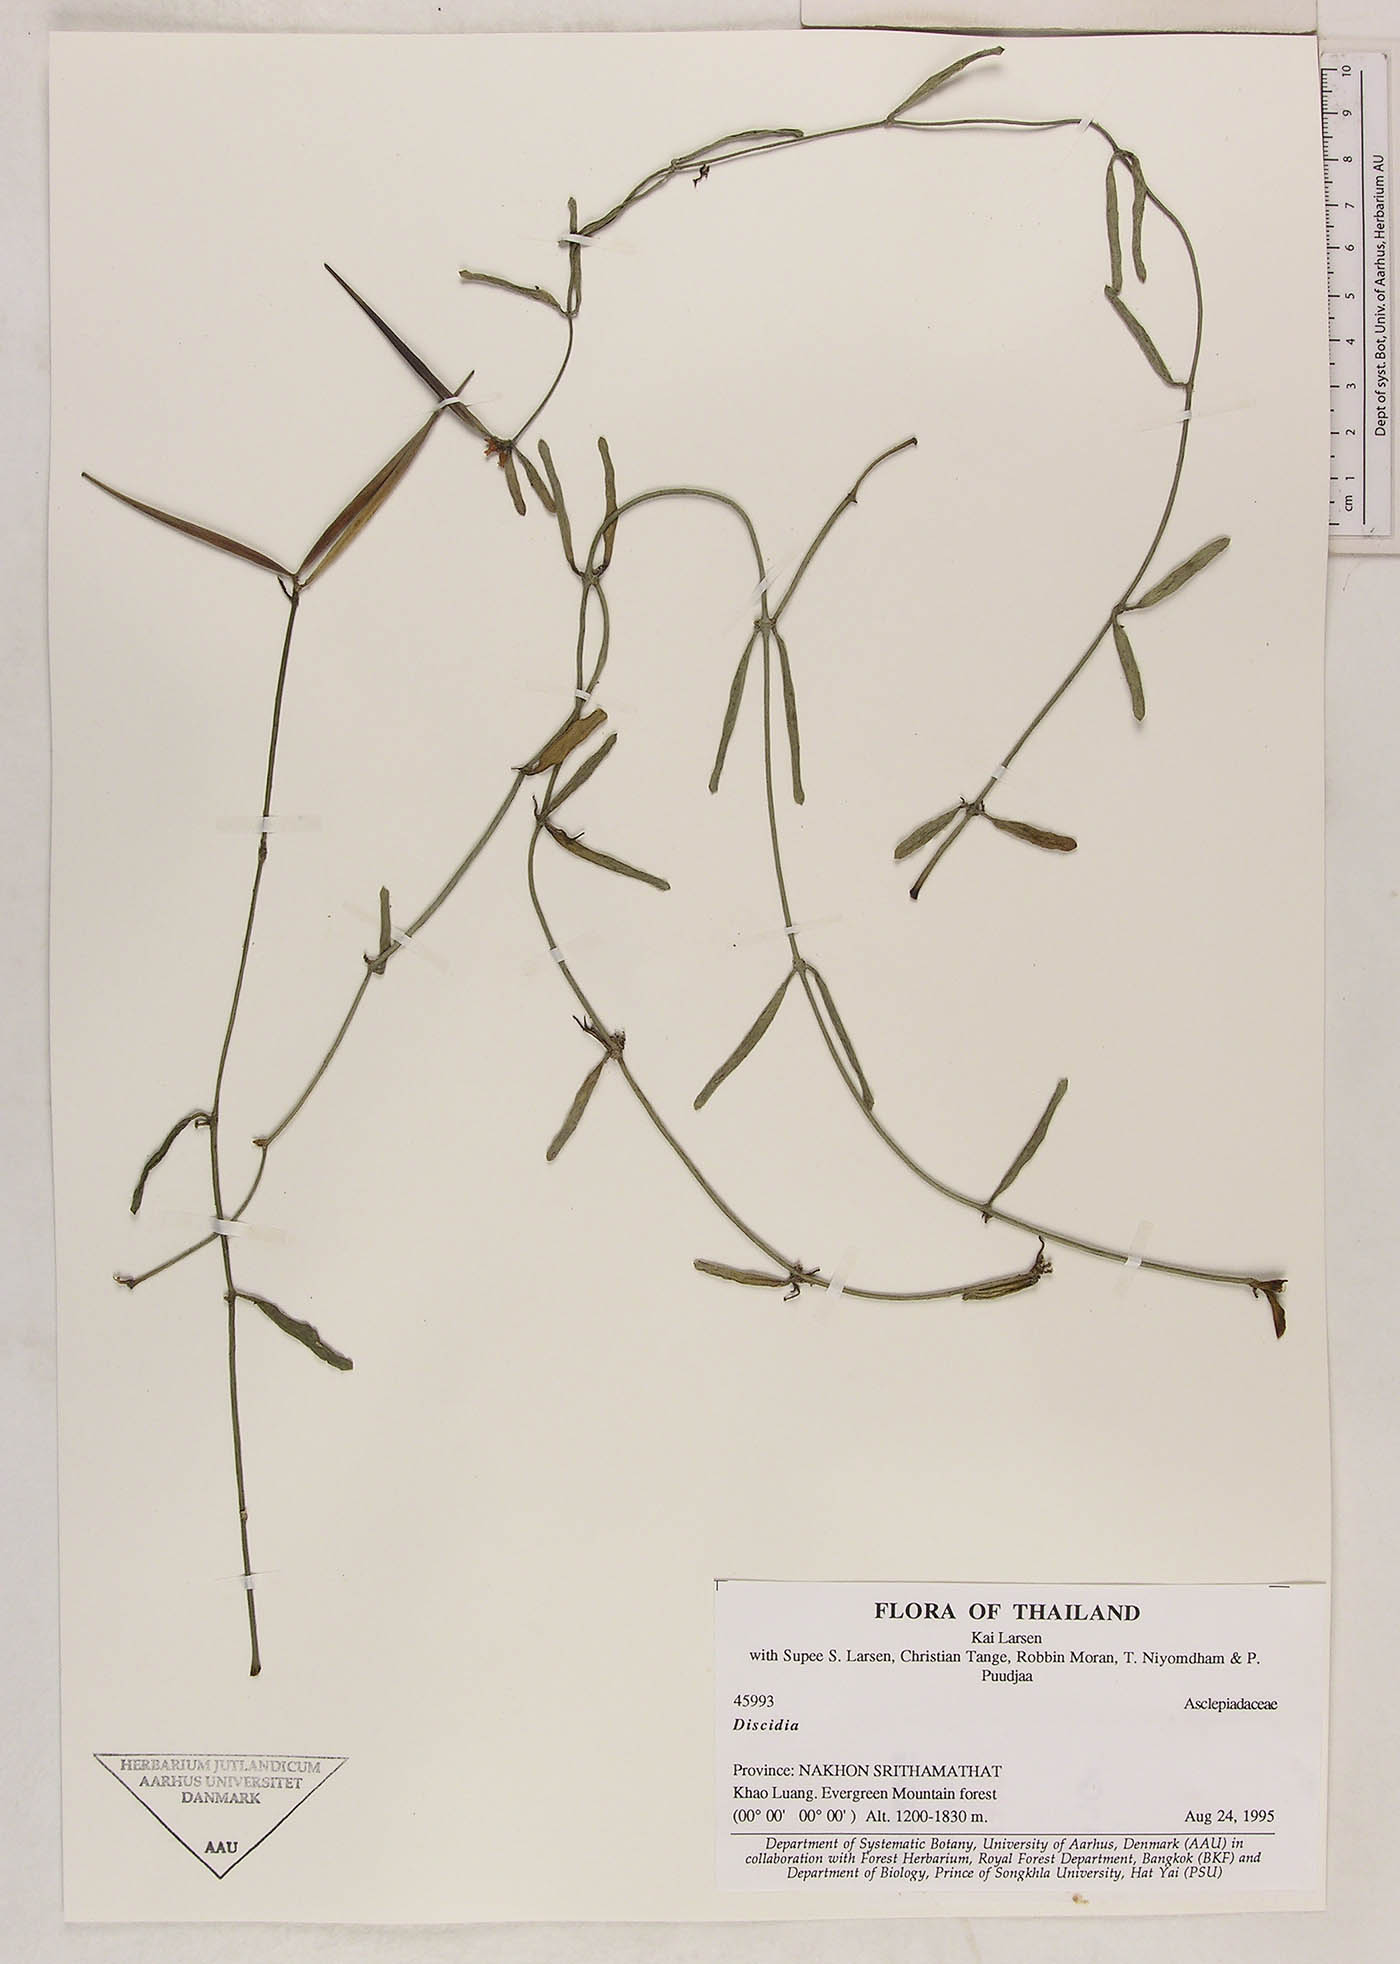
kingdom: Plantae
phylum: Tracheophyta
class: Magnoliopsida
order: Gentianales
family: Apocynaceae
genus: Dischidia
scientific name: Dischidia
